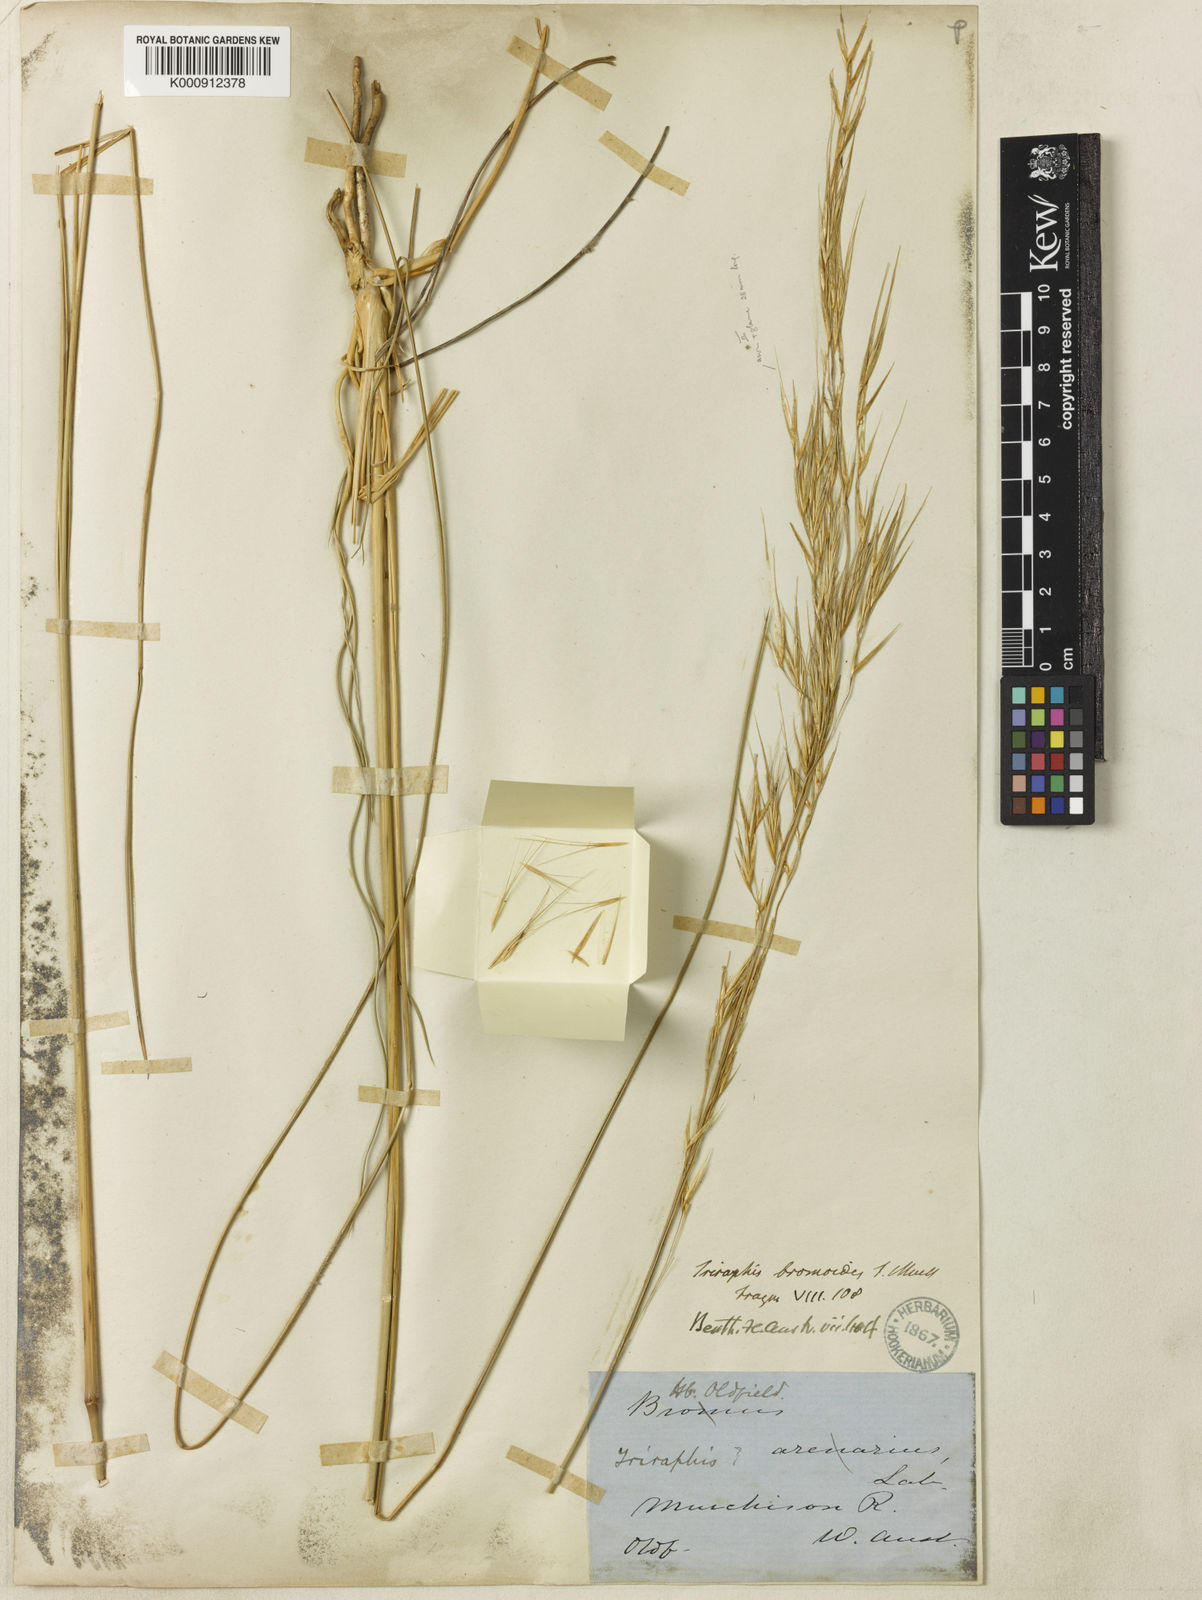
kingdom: Plantae
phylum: Tracheophyta
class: Liliopsida
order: Poales
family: Poaceae
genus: Triodia
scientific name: Triodia bromoides
